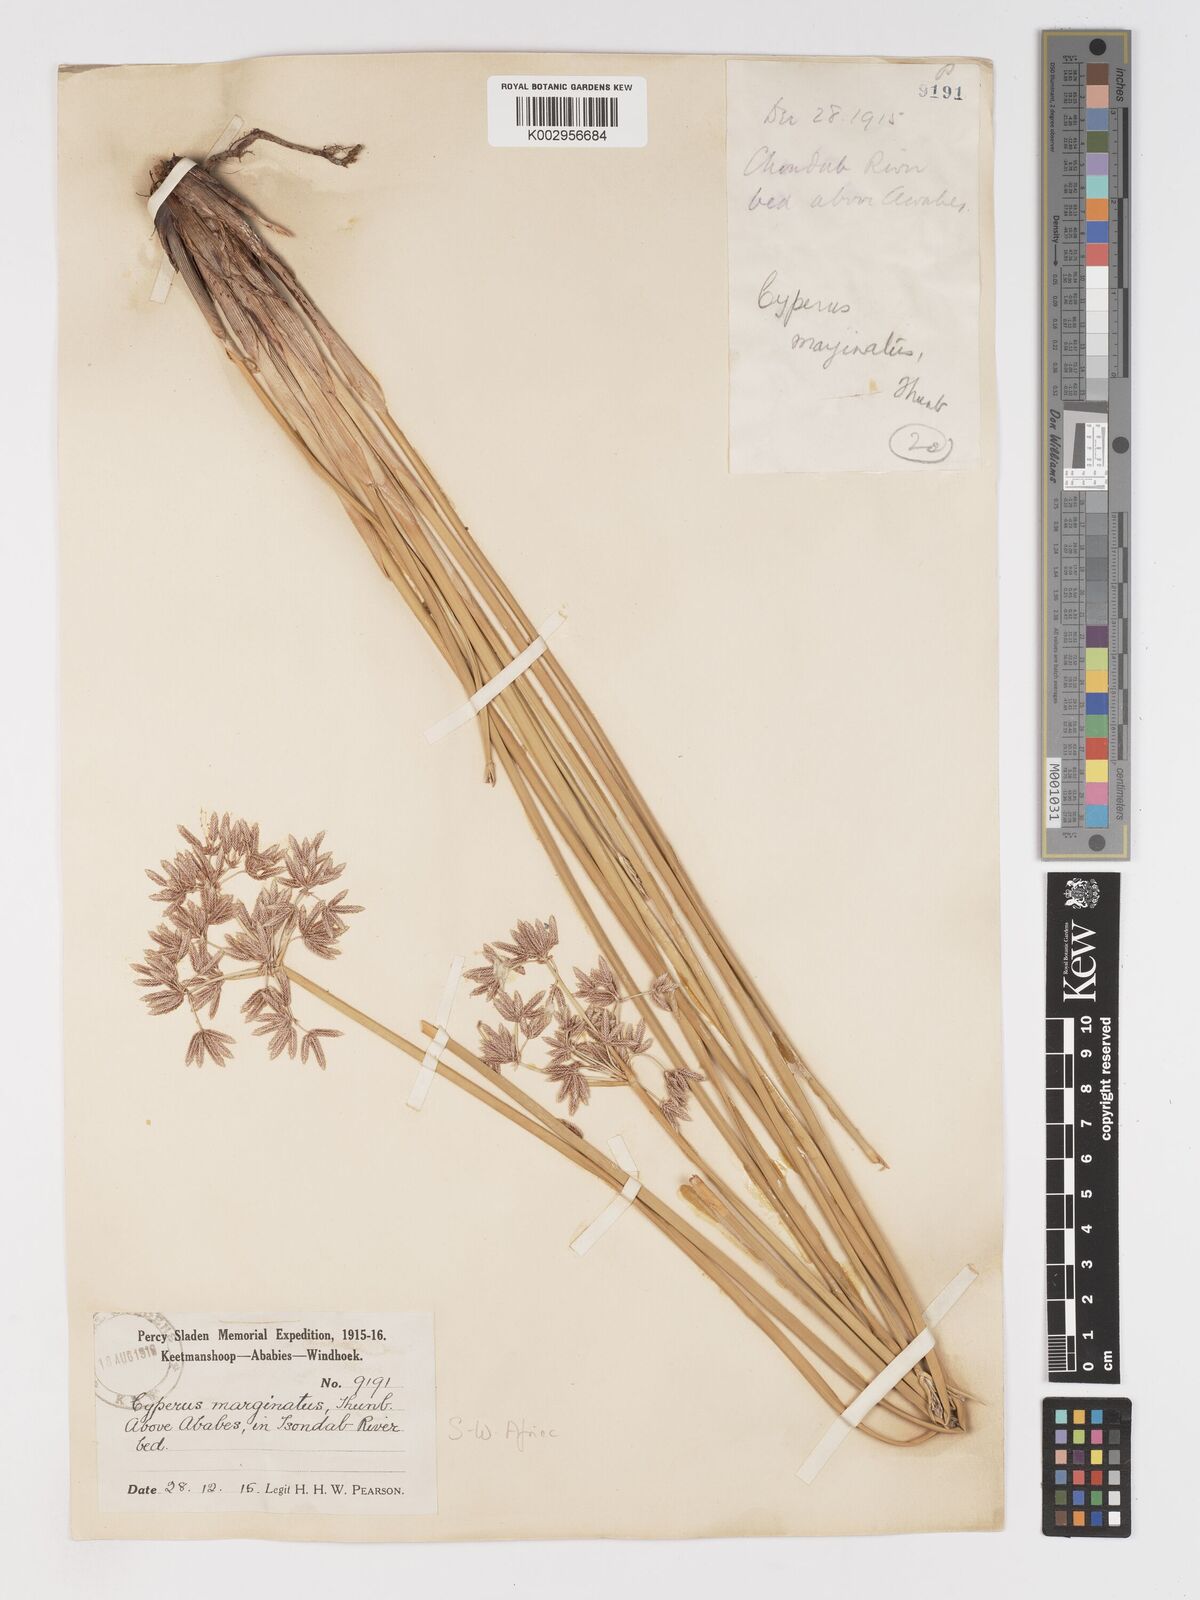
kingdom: Plantae
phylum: Tracheophyta
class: Liliopsida
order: Poales
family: Cyperaceae
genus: Cyperus
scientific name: Cyperus marginatus
